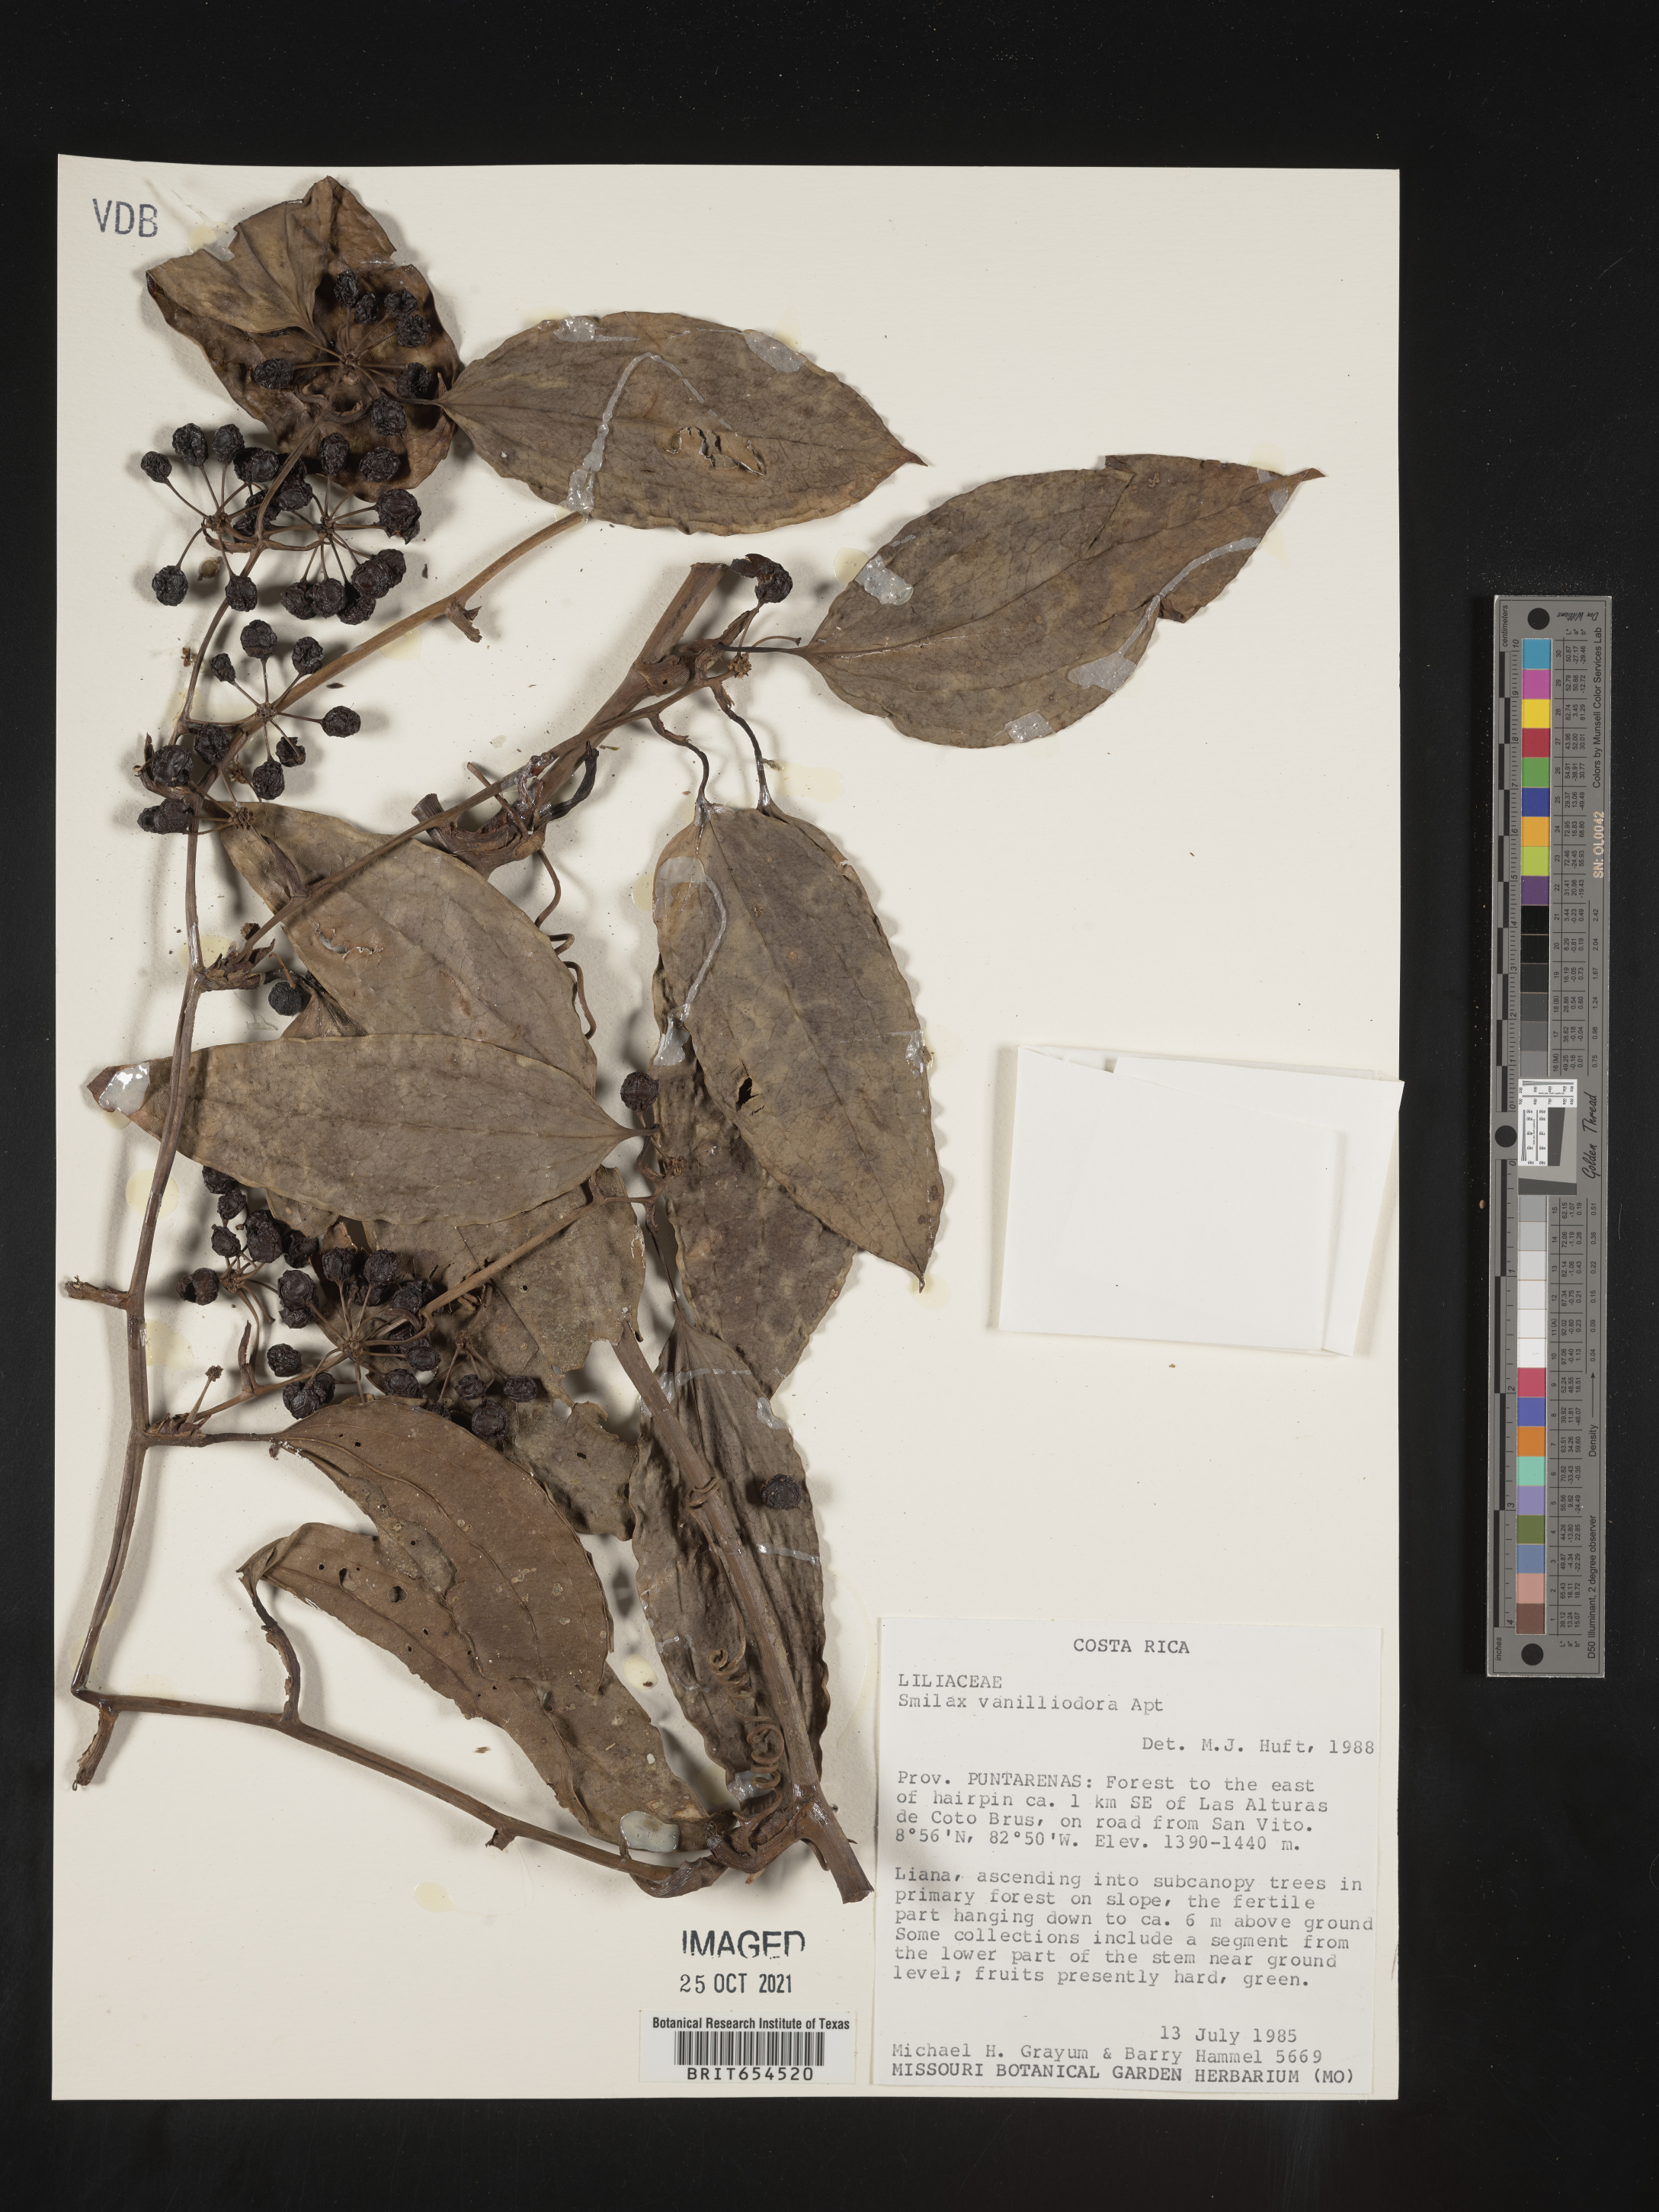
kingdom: Plantae
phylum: Tracheophyta
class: Liliopsida
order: Liliales
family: Smilacaceae
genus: Smilax
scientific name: Smilax
